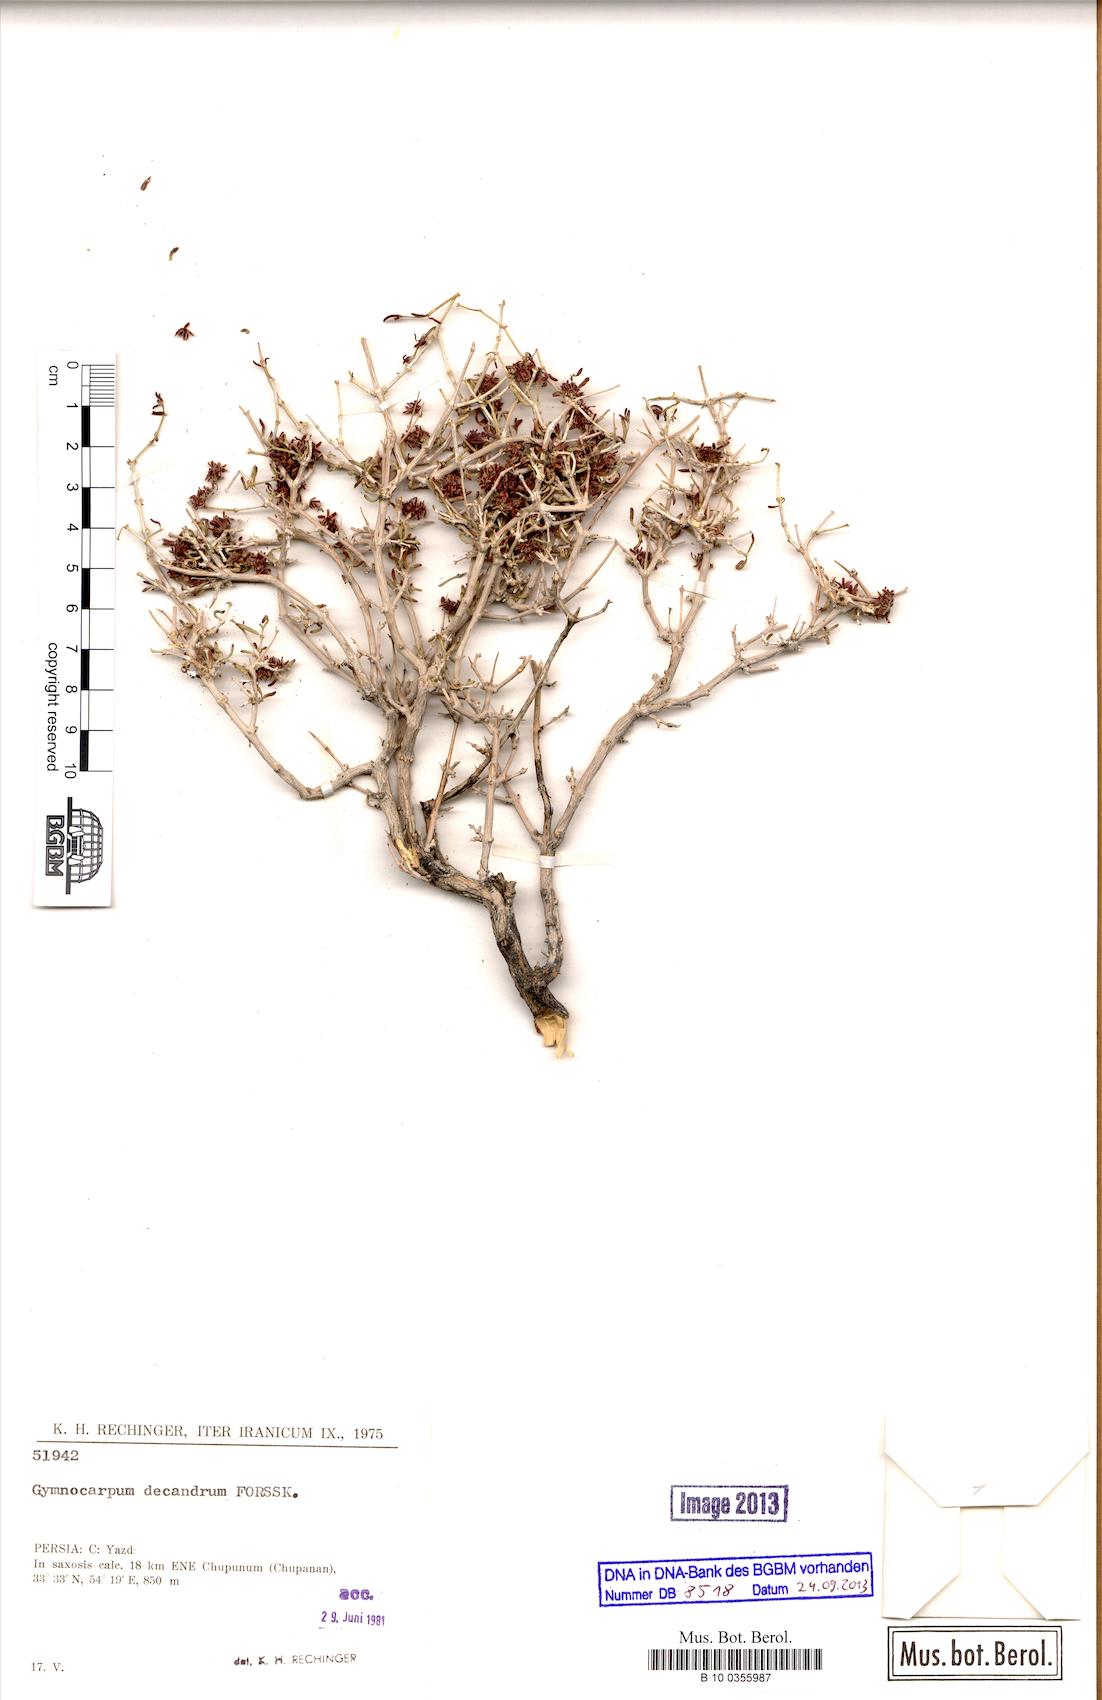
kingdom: Plantae
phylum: Tracheophyta
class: Magnoliopsida
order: Caryophyllales
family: Caryophyllaceae
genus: Gymnocarpos
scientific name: Gymnocarpos decandrus
